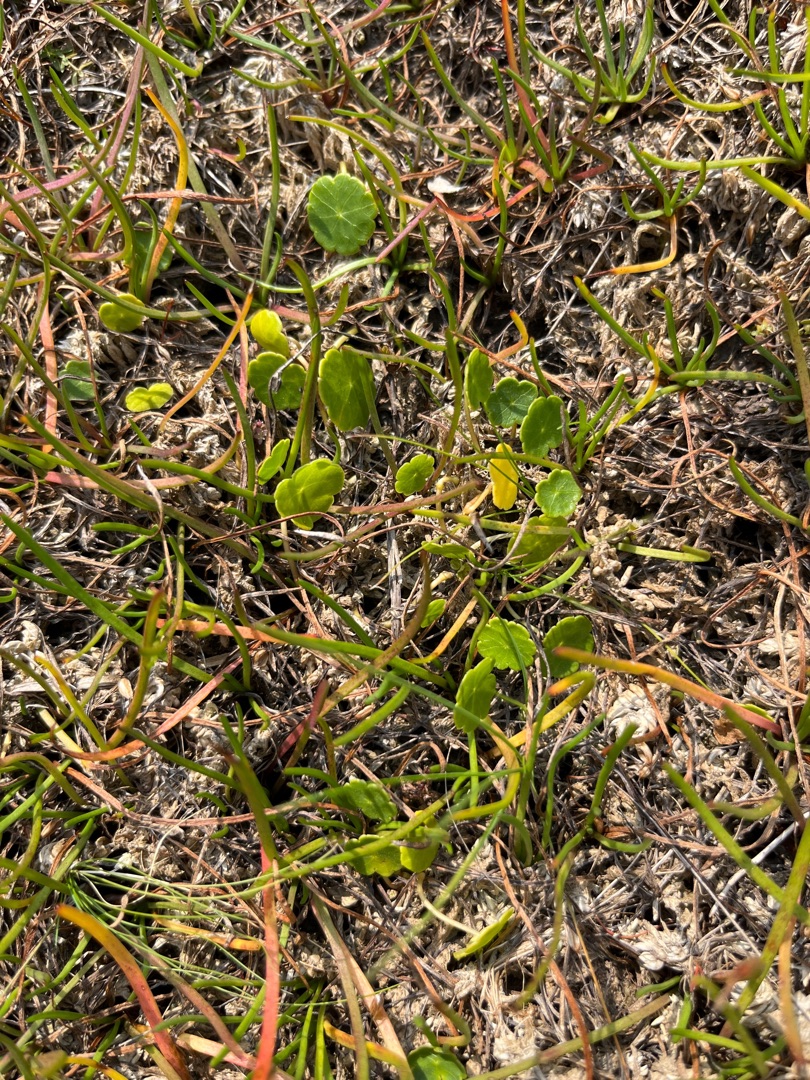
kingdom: Plantae
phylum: Tracheophyta
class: Magnoliopsida
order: Apiales
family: Araliaceae
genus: Hydrocotyle
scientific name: Hydrocotyle vulgaris
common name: Vandnavle
